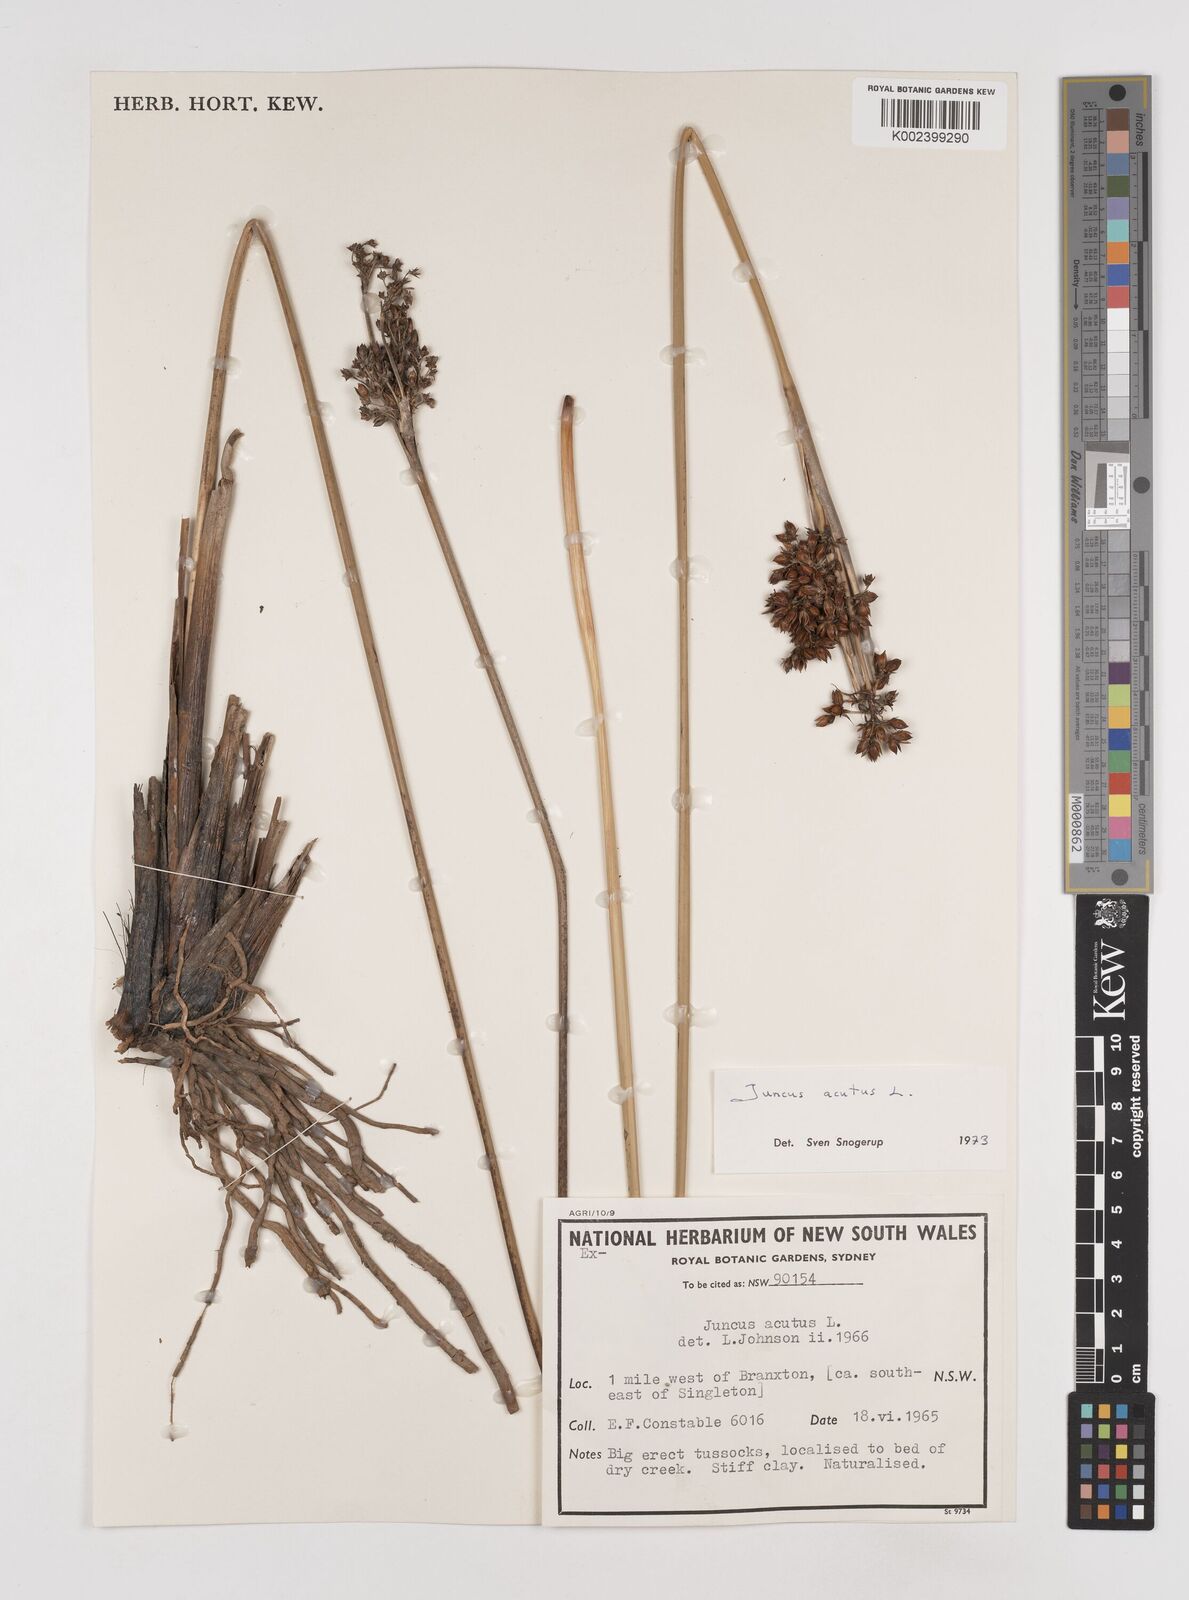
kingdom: Plantae
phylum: Tracheophyta
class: Liliopsida
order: Poales
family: Juncaceae
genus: Juncus
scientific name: Juncus acutus
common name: Sharp rush
